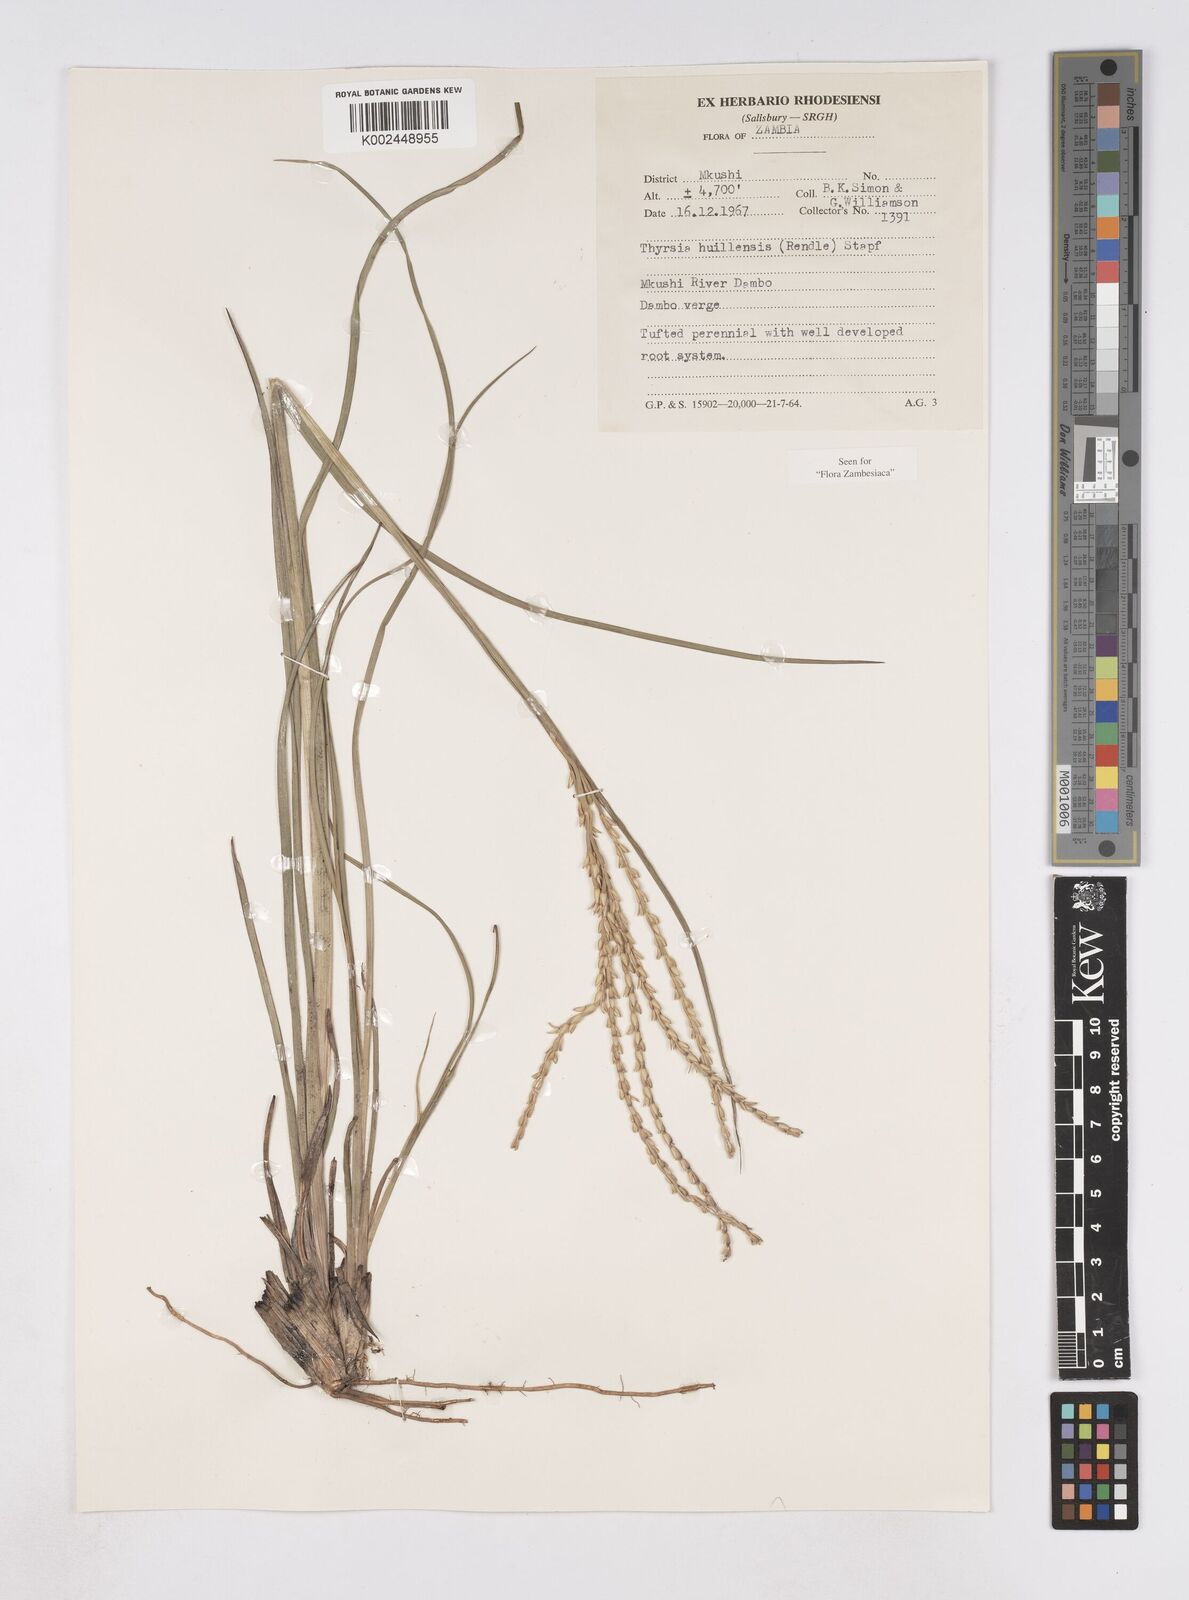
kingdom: Plantae
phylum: Tracheophyta
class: Liliopsida
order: Poales
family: Poaceae
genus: Thyrsia
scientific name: Thyrsia huillensis
